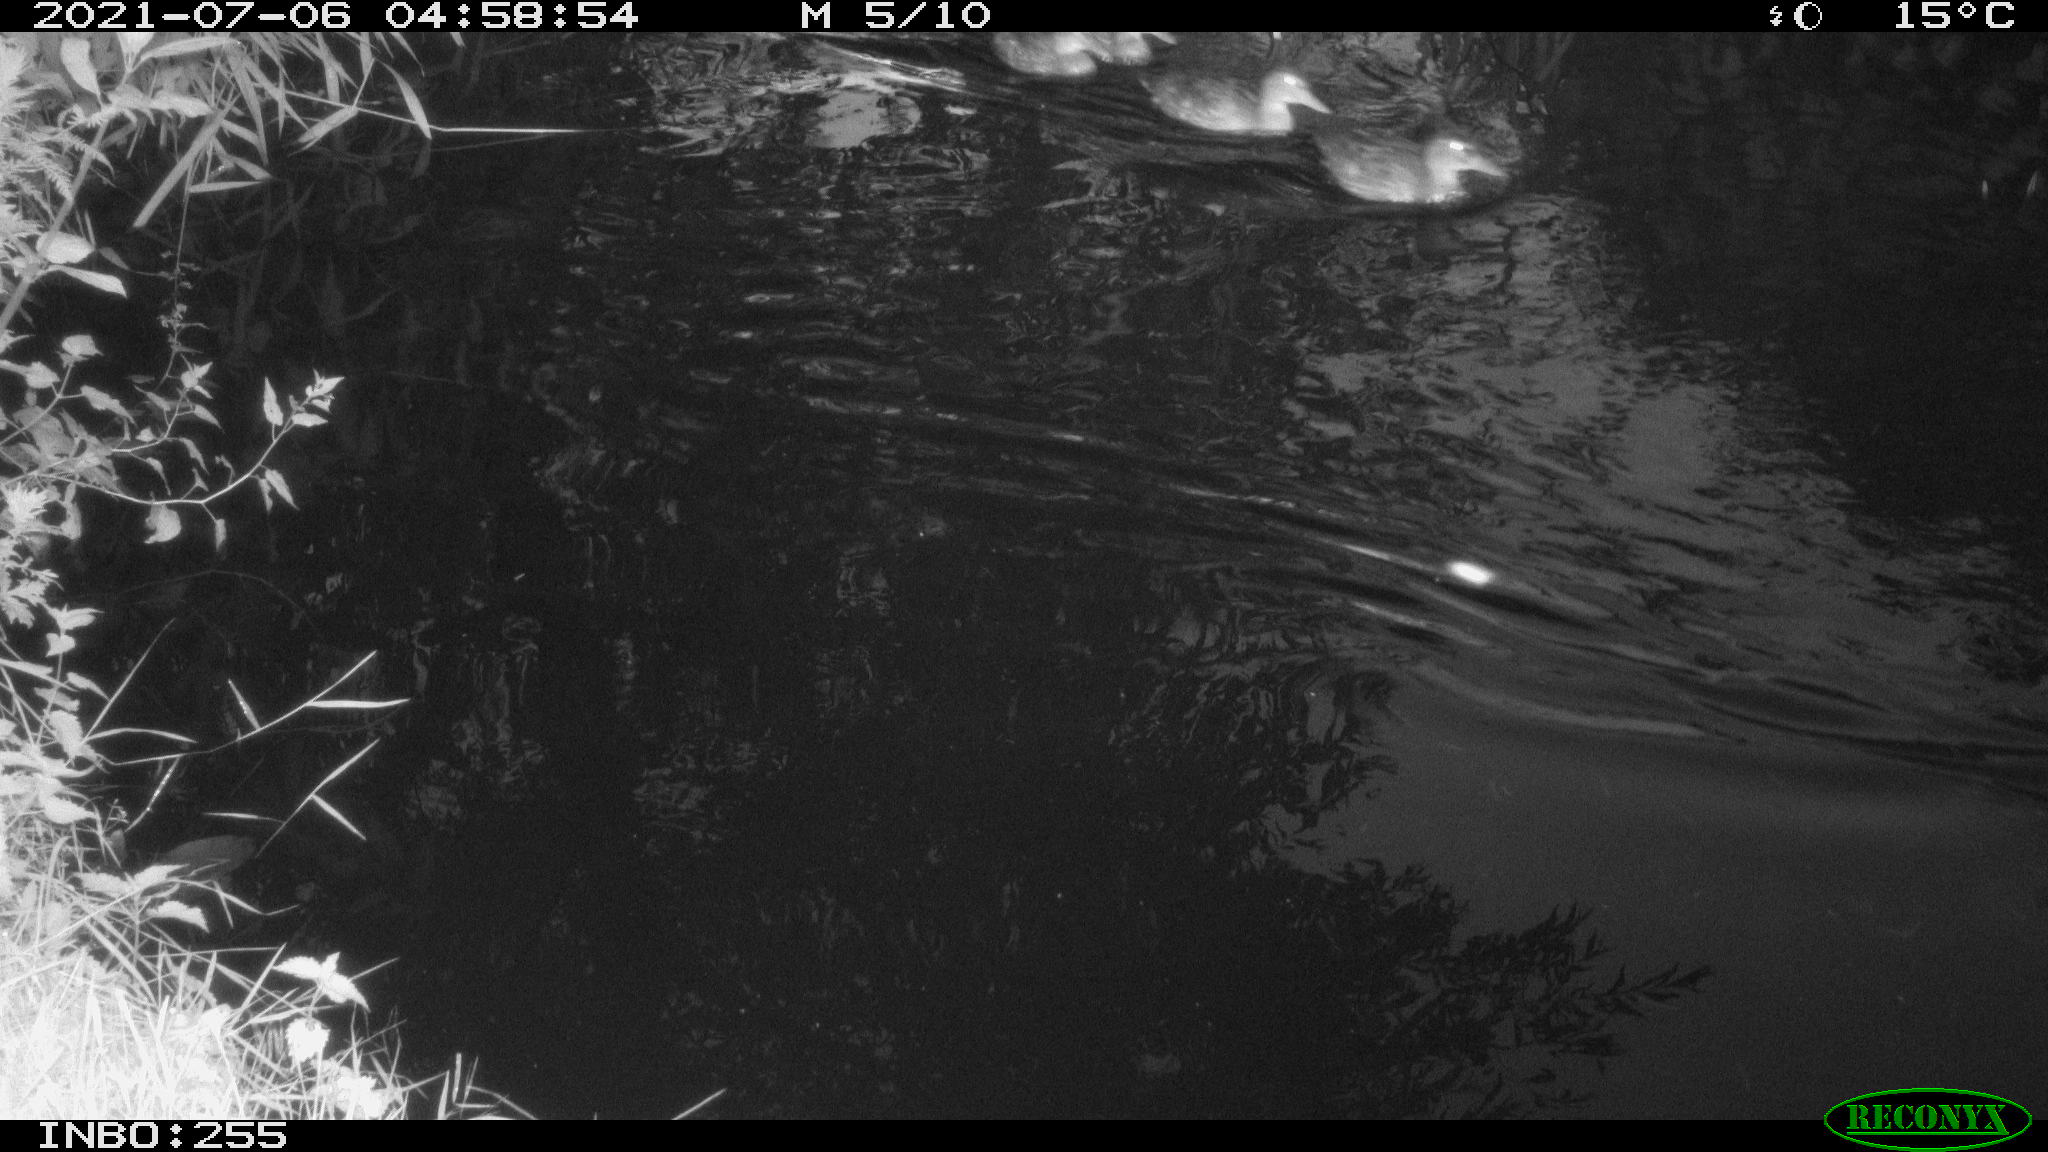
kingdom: Animalia
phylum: Chordata
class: Aves
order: Anseriformes
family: Anatidae
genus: Branta
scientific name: Branta canadensis
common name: Canada goose
